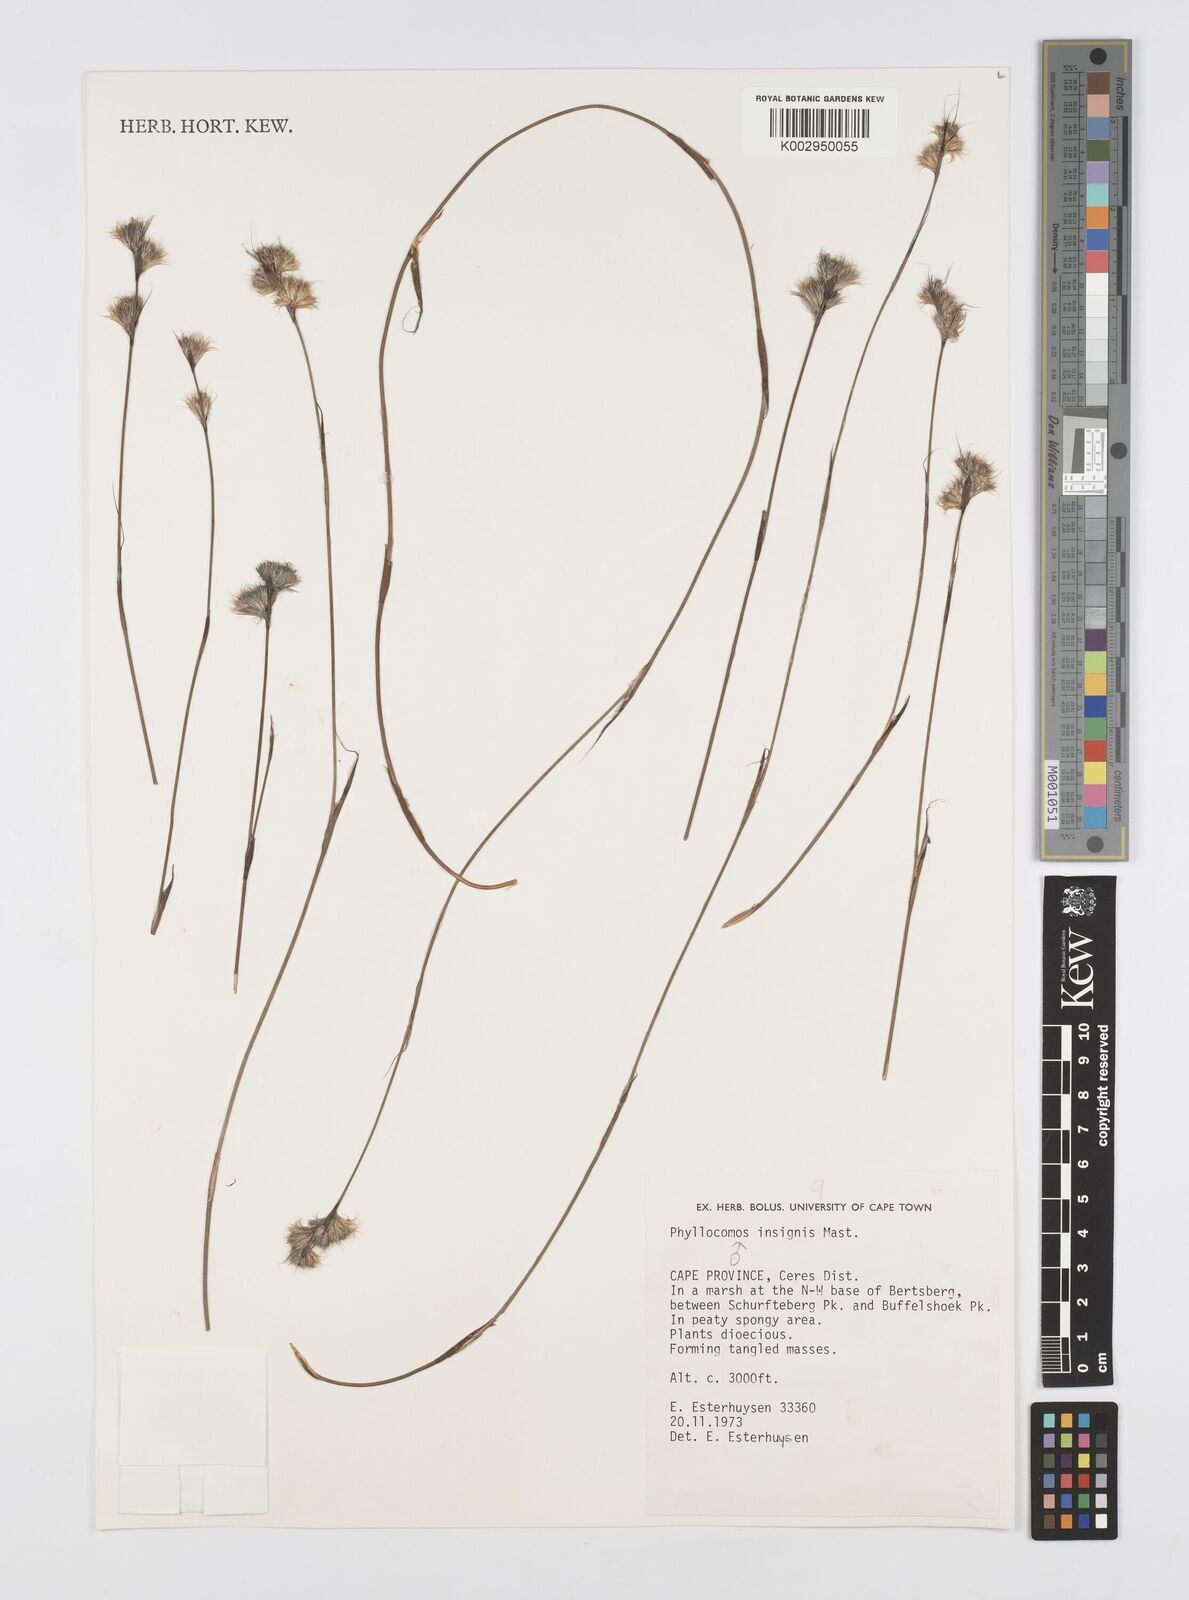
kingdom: Plantae
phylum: Tracheophyta
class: Liliopsida
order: Poales
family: Restionaceae
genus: Anthochortus
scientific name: Anthochortus insignis
